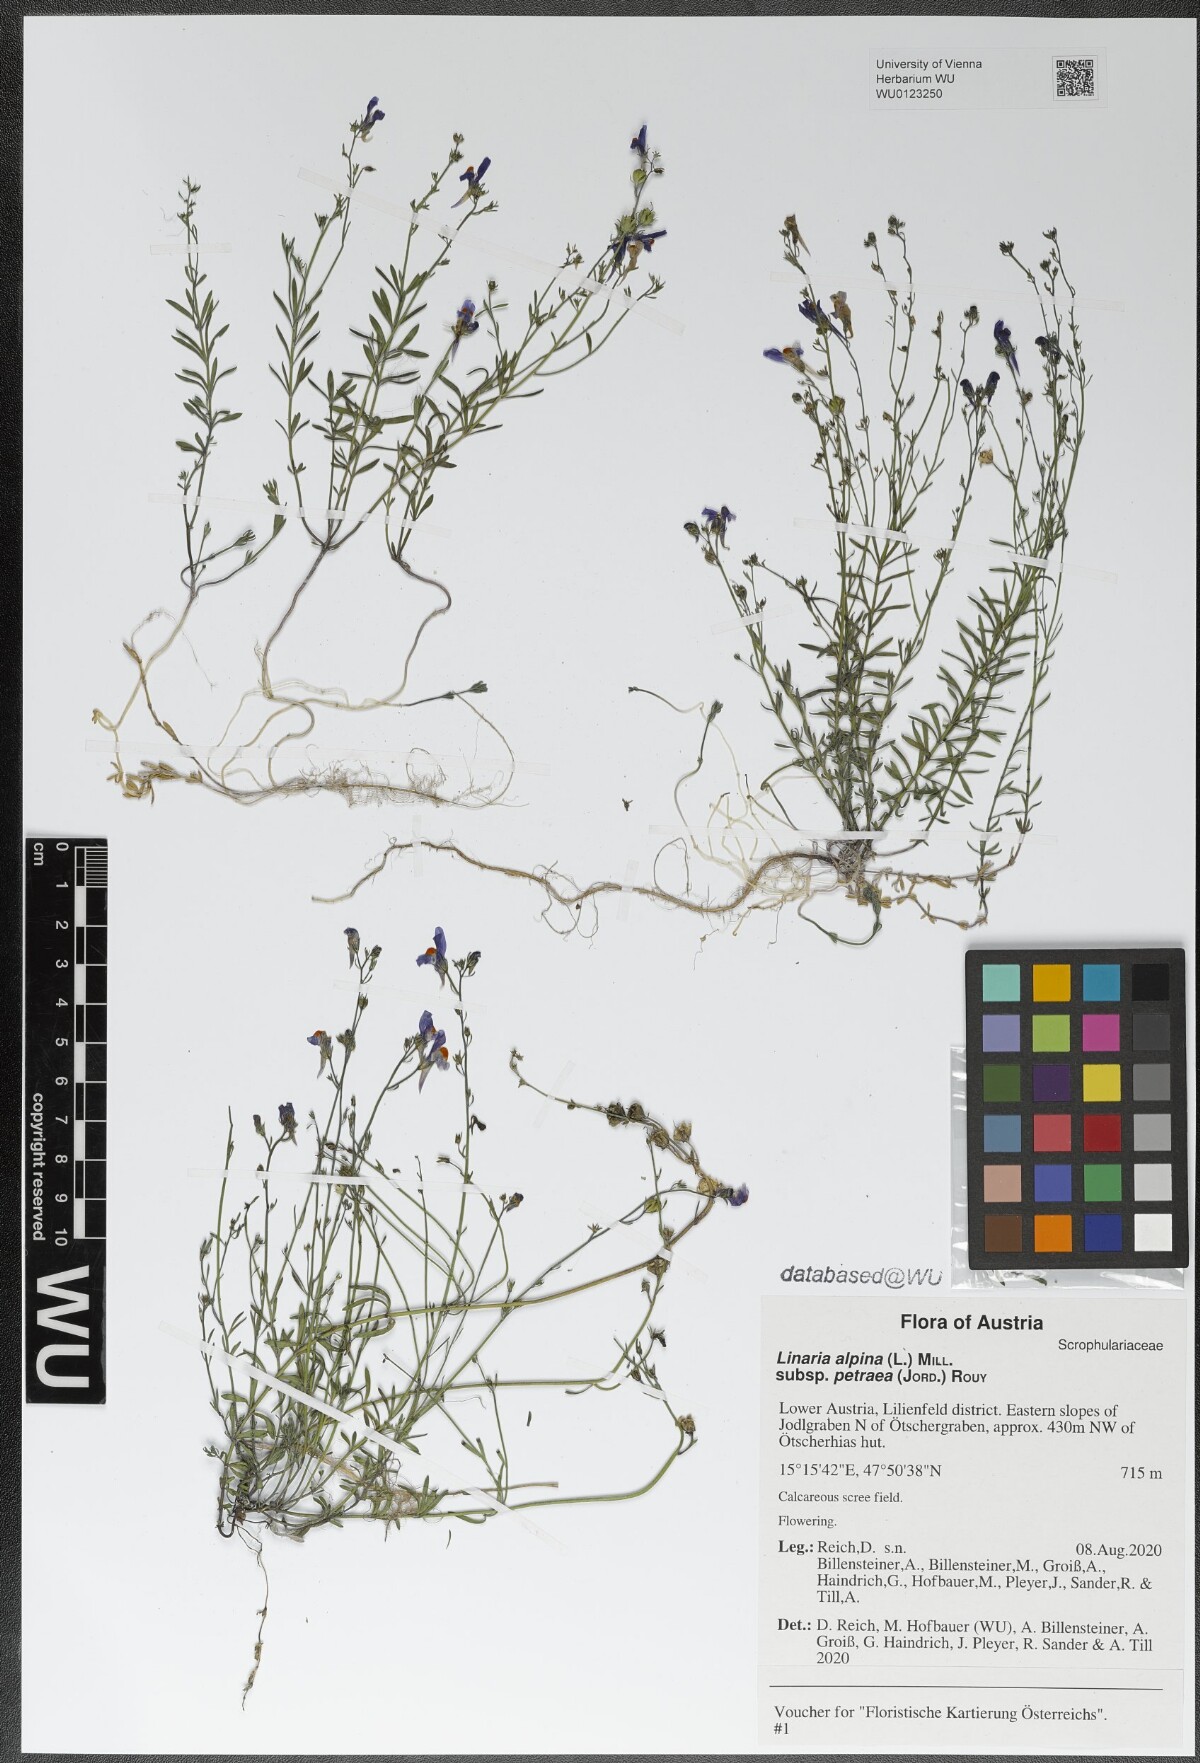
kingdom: Plantae
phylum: Tracheophyta
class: Magnoliopsida
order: Lamiales
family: Plantaginaceae
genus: Linaria
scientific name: Linaria alpina
